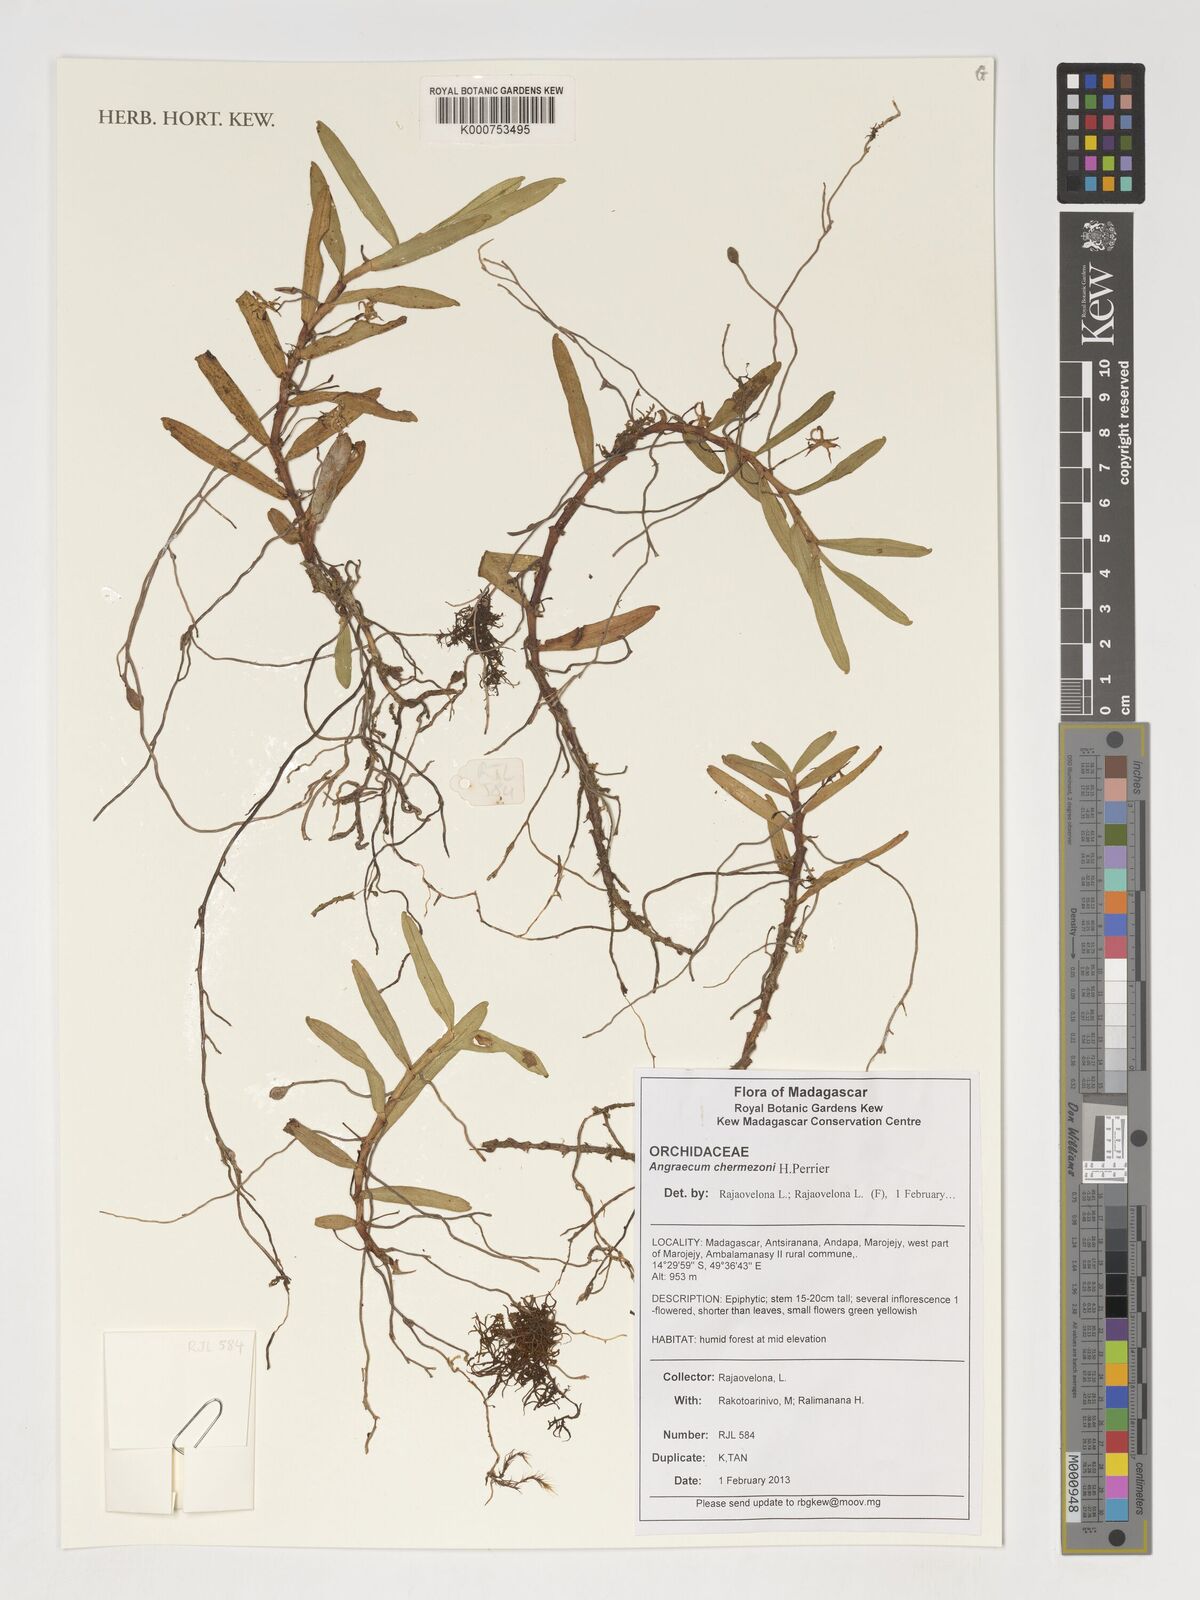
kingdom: Plantae
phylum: Tracheophyta
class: Liliopsida
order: Asparagales
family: Orchidaceae
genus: Angraecum
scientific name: Angraecum chermezonii
